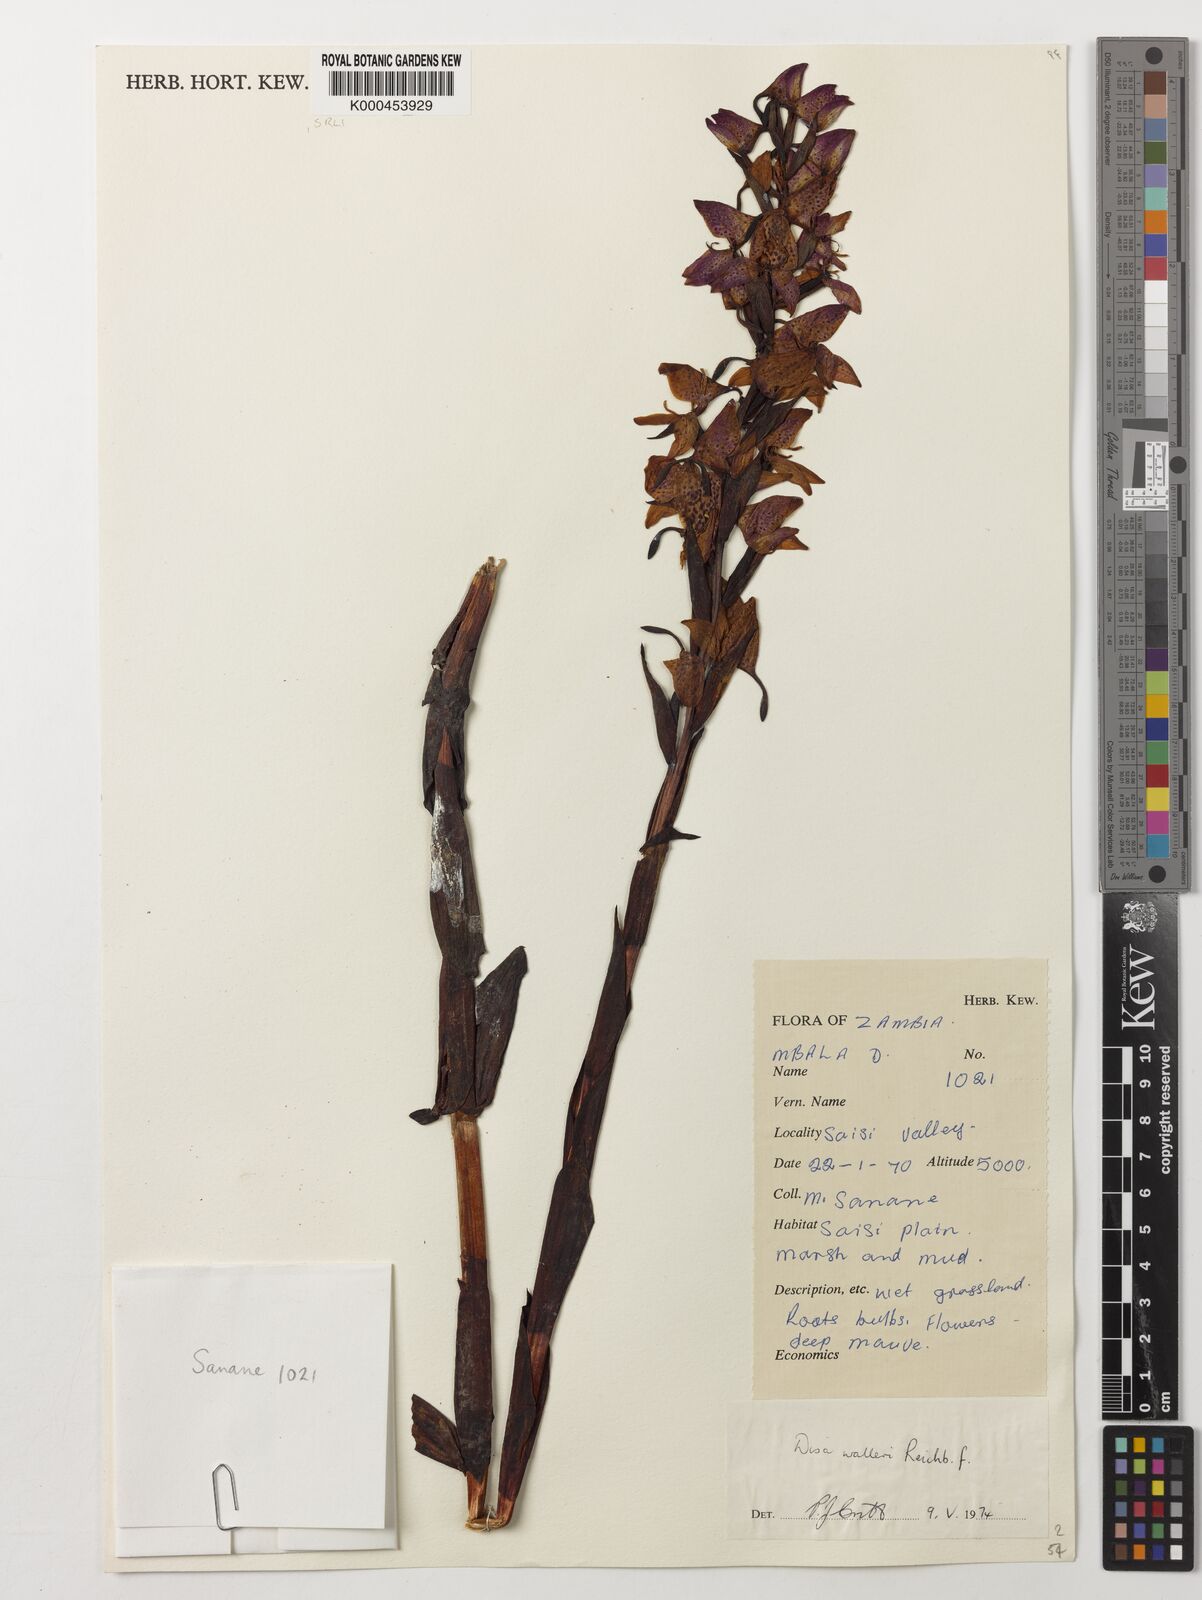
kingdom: Plantae
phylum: Tracheophyta
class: Liliopsida
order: Asparagales
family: Orchidaceae
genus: Disa
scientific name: Disa walleri
